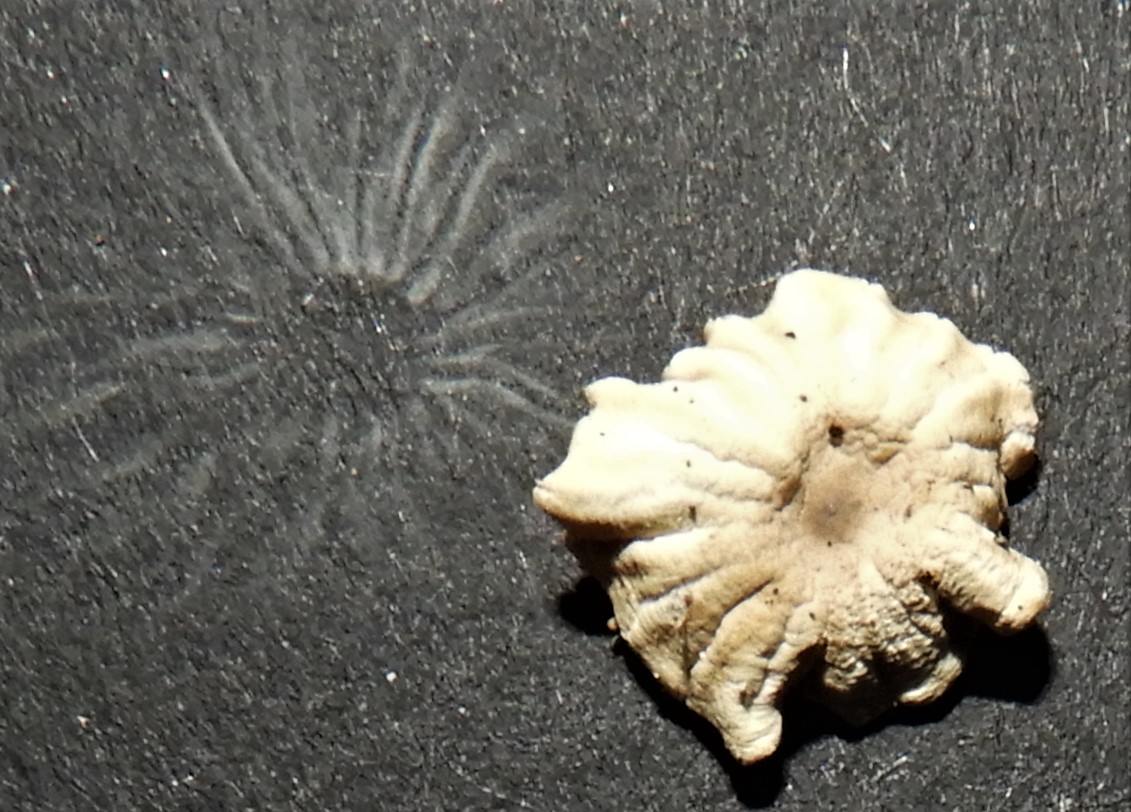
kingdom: Fungi
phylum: Basidiomycota
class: Agaricomycetes
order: Agaricales
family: Marasmiaceae
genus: Marasmius
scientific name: Marasmius rotula
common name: hjul-bruskhat
